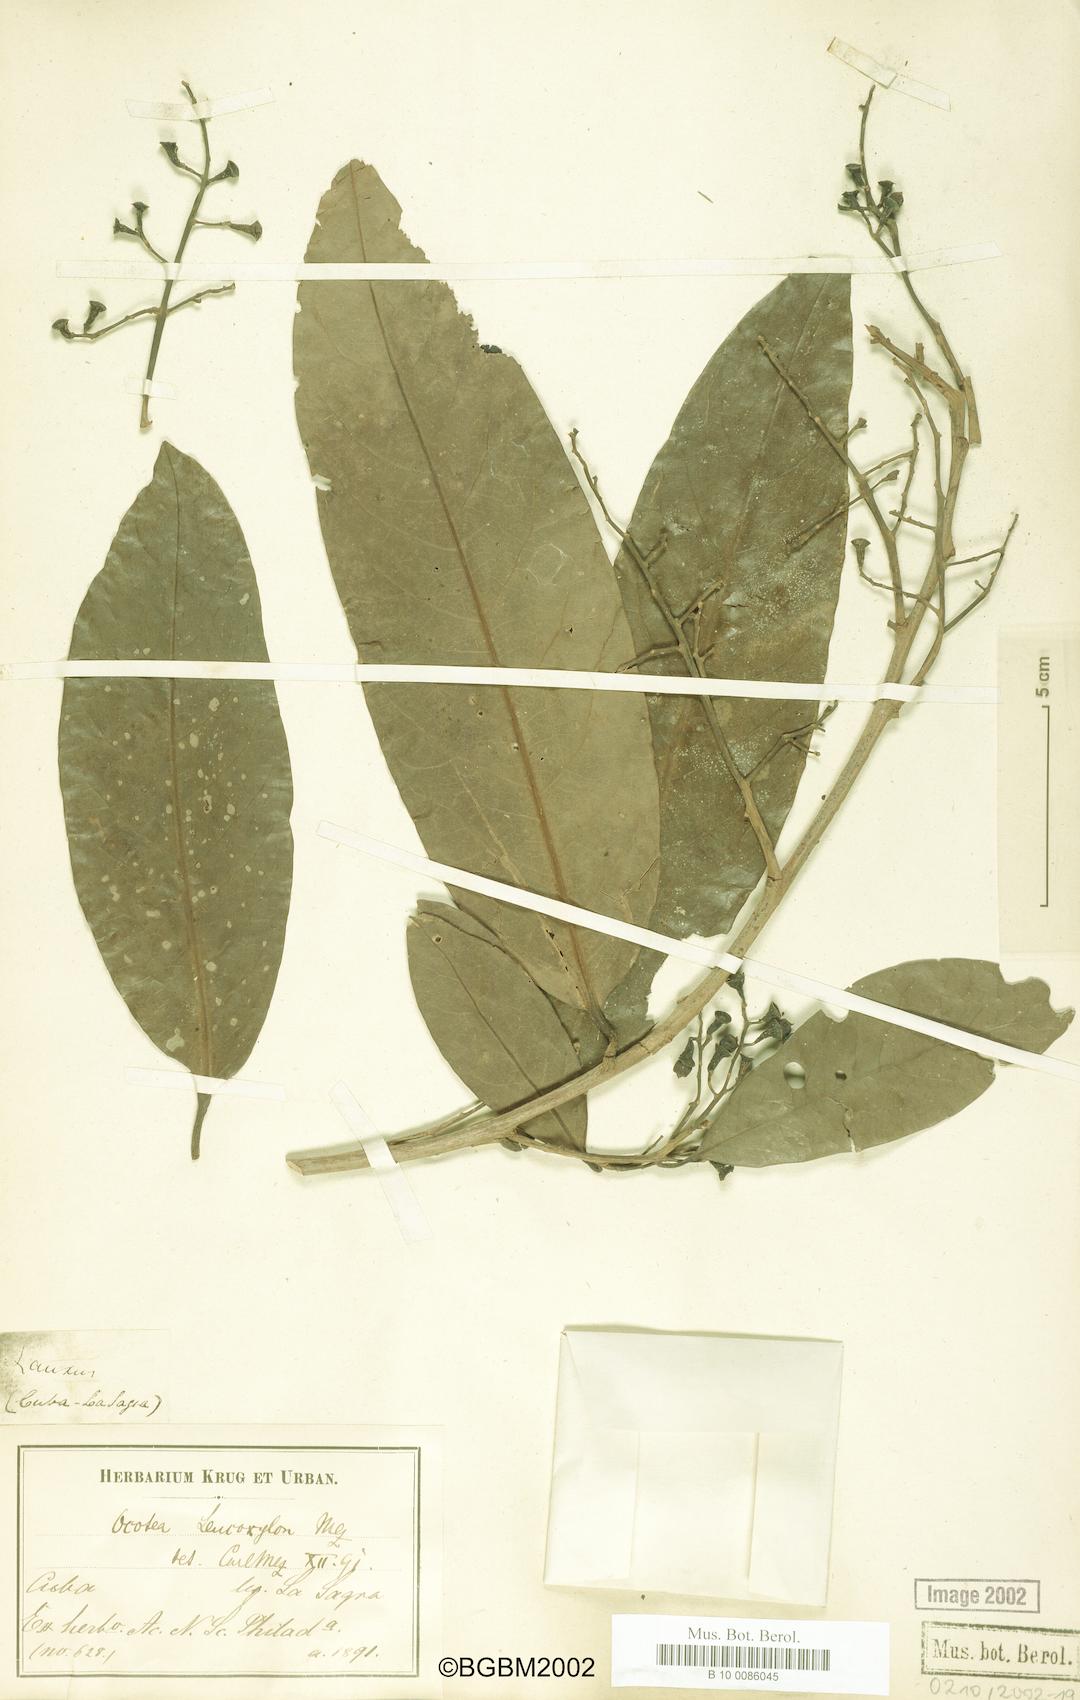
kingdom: Plantae
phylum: Tracheophyta
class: Magnoliopsida
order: Laurales
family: Lauraceae
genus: Ocotea
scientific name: Ocotea leucoxylon
